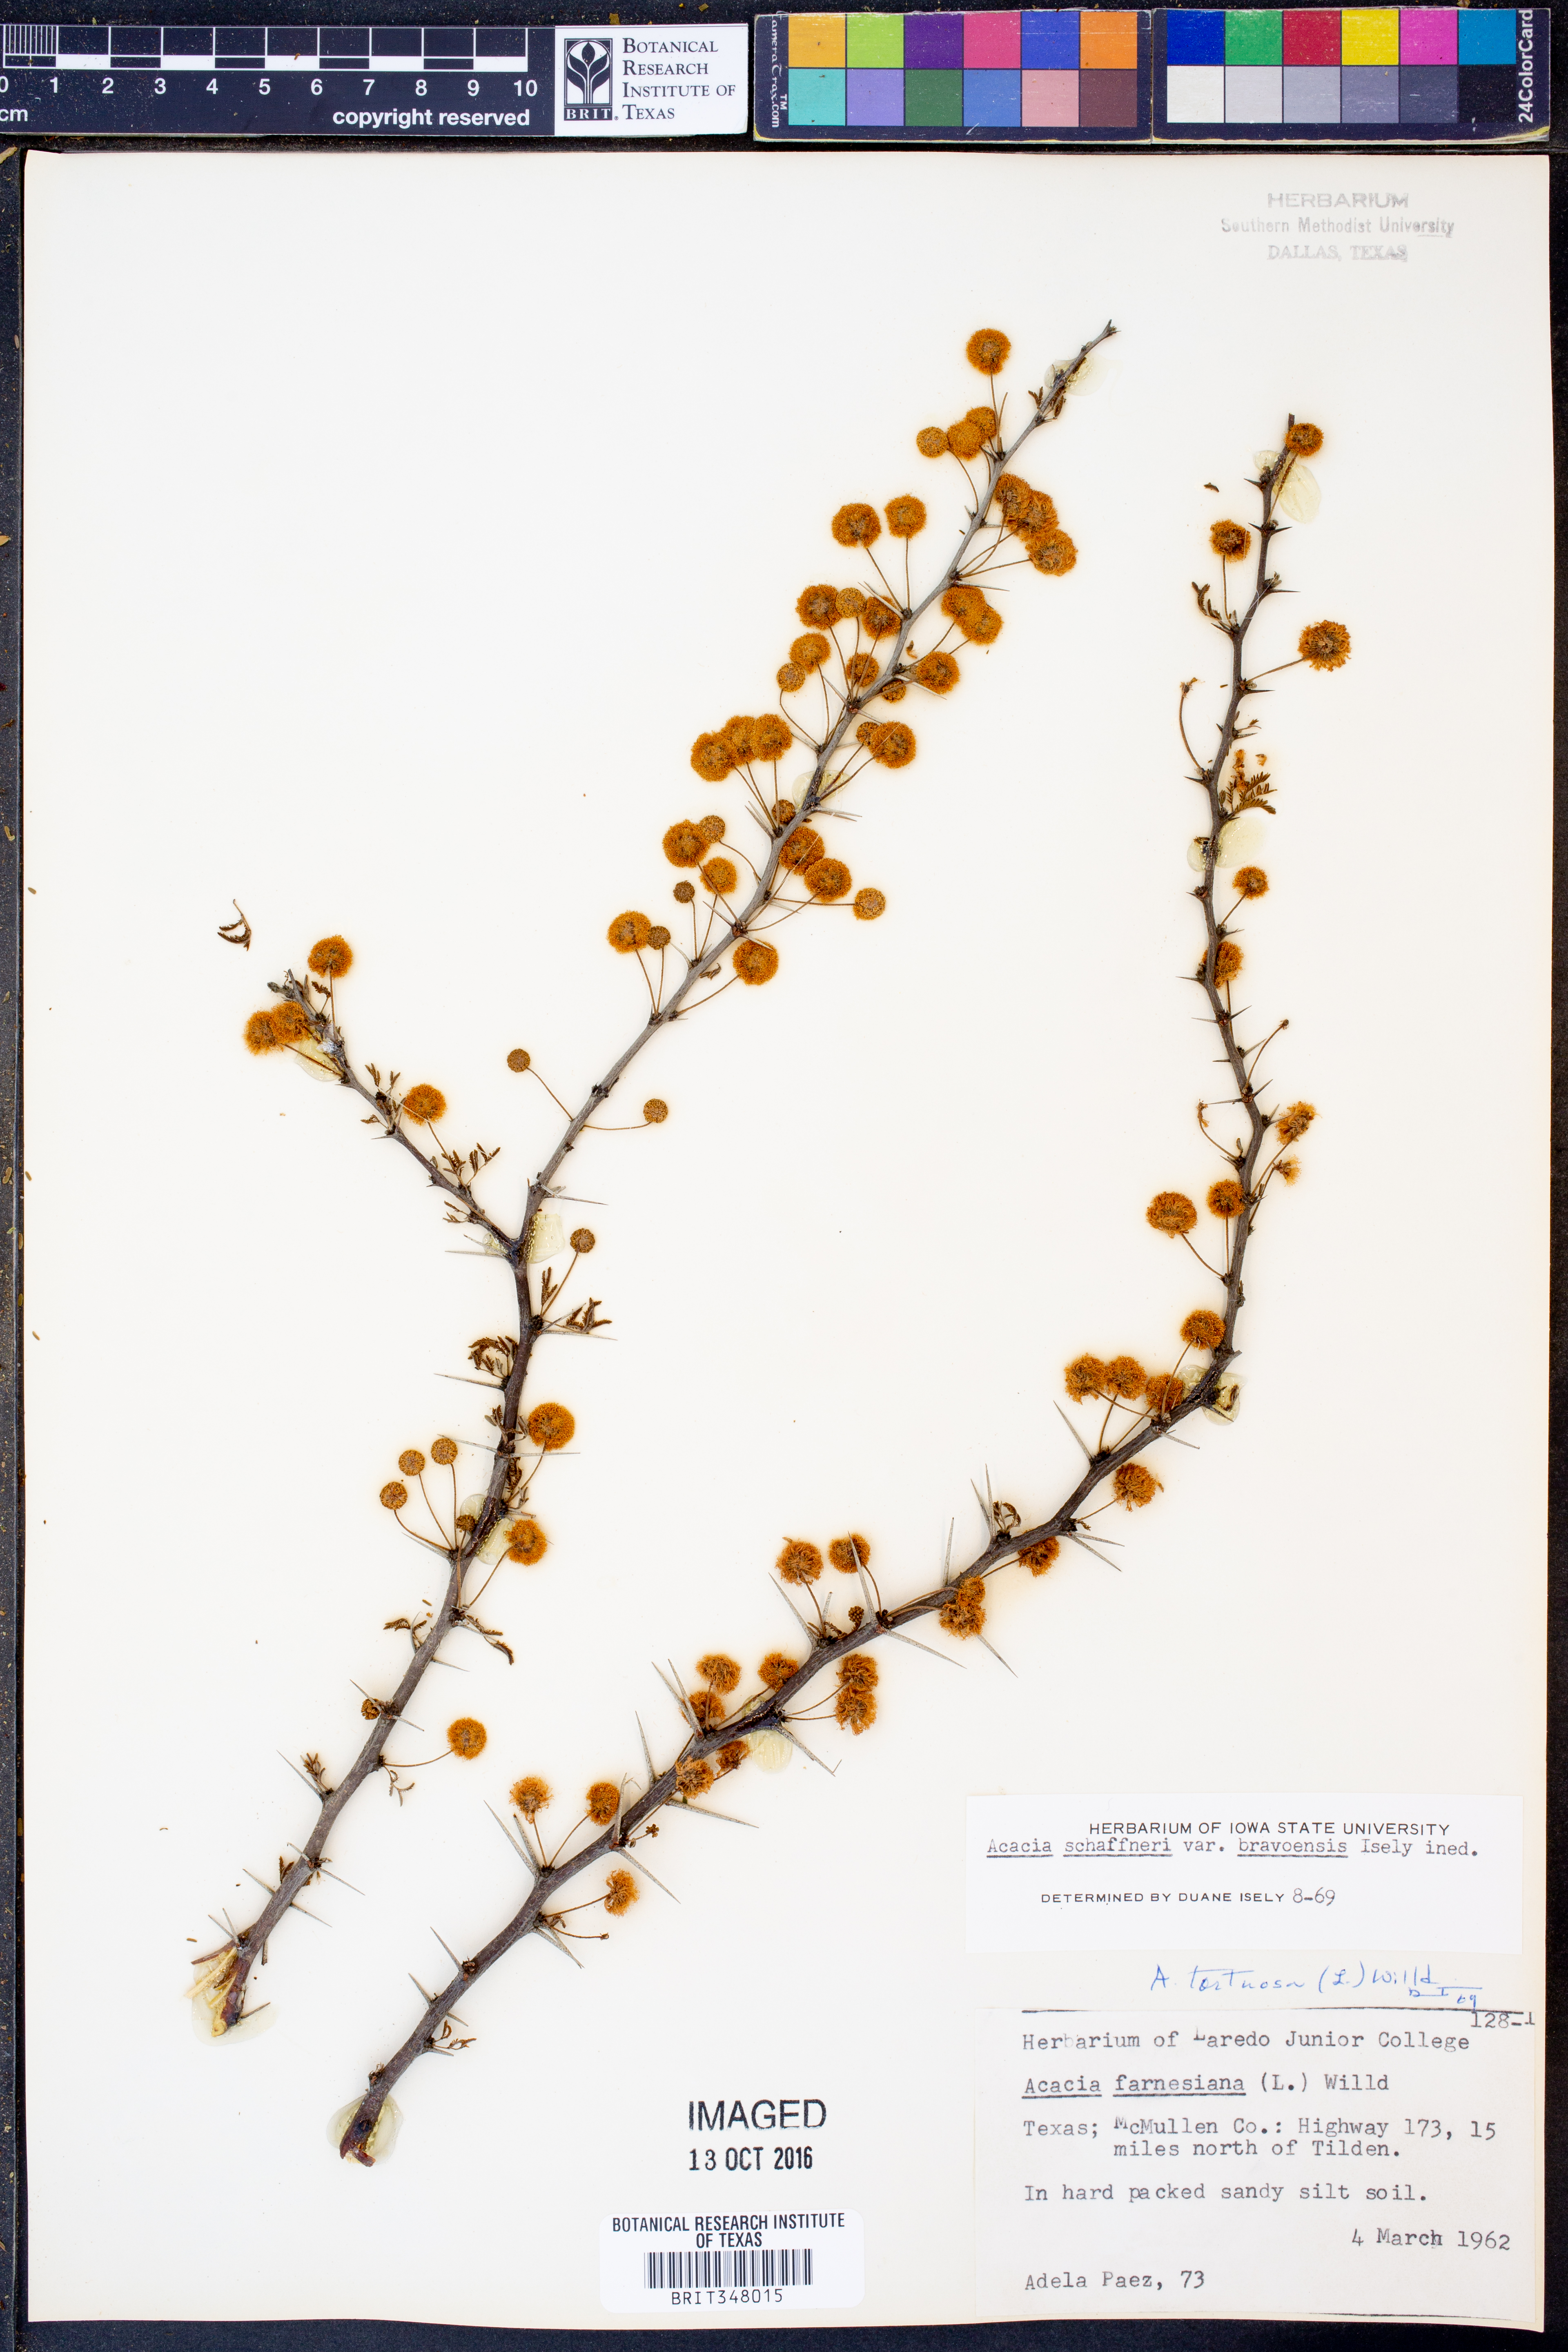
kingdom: Plantae
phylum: Tracheophyta
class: Magnoliopsida
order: Fabales
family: Fabaceae
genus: Vachellia
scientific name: Vachellia bravoensis
